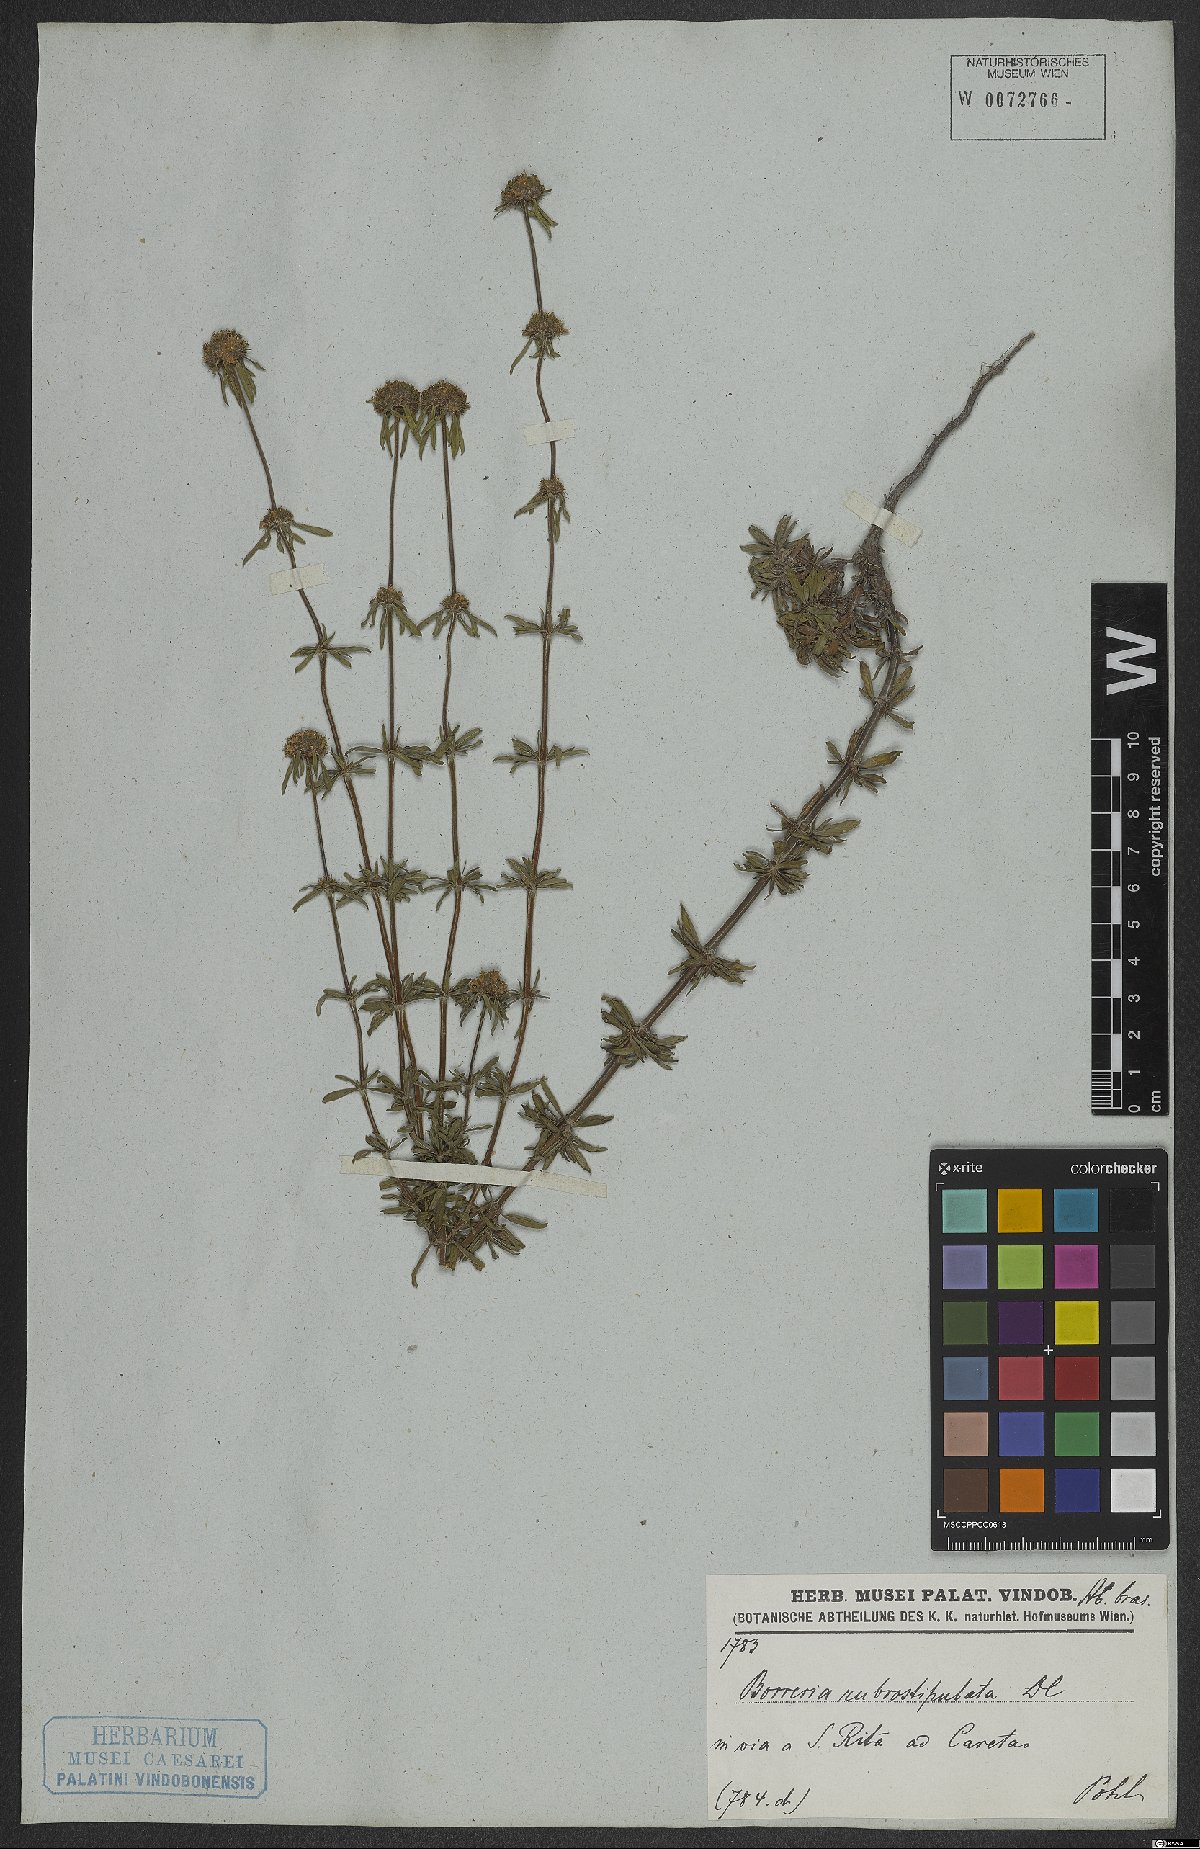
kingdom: Plantae
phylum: Tracheophyta
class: Magnoliopsida
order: Gentianales
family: Rubiaceae
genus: Spermacoce
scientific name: Spermacoce orinocensis
